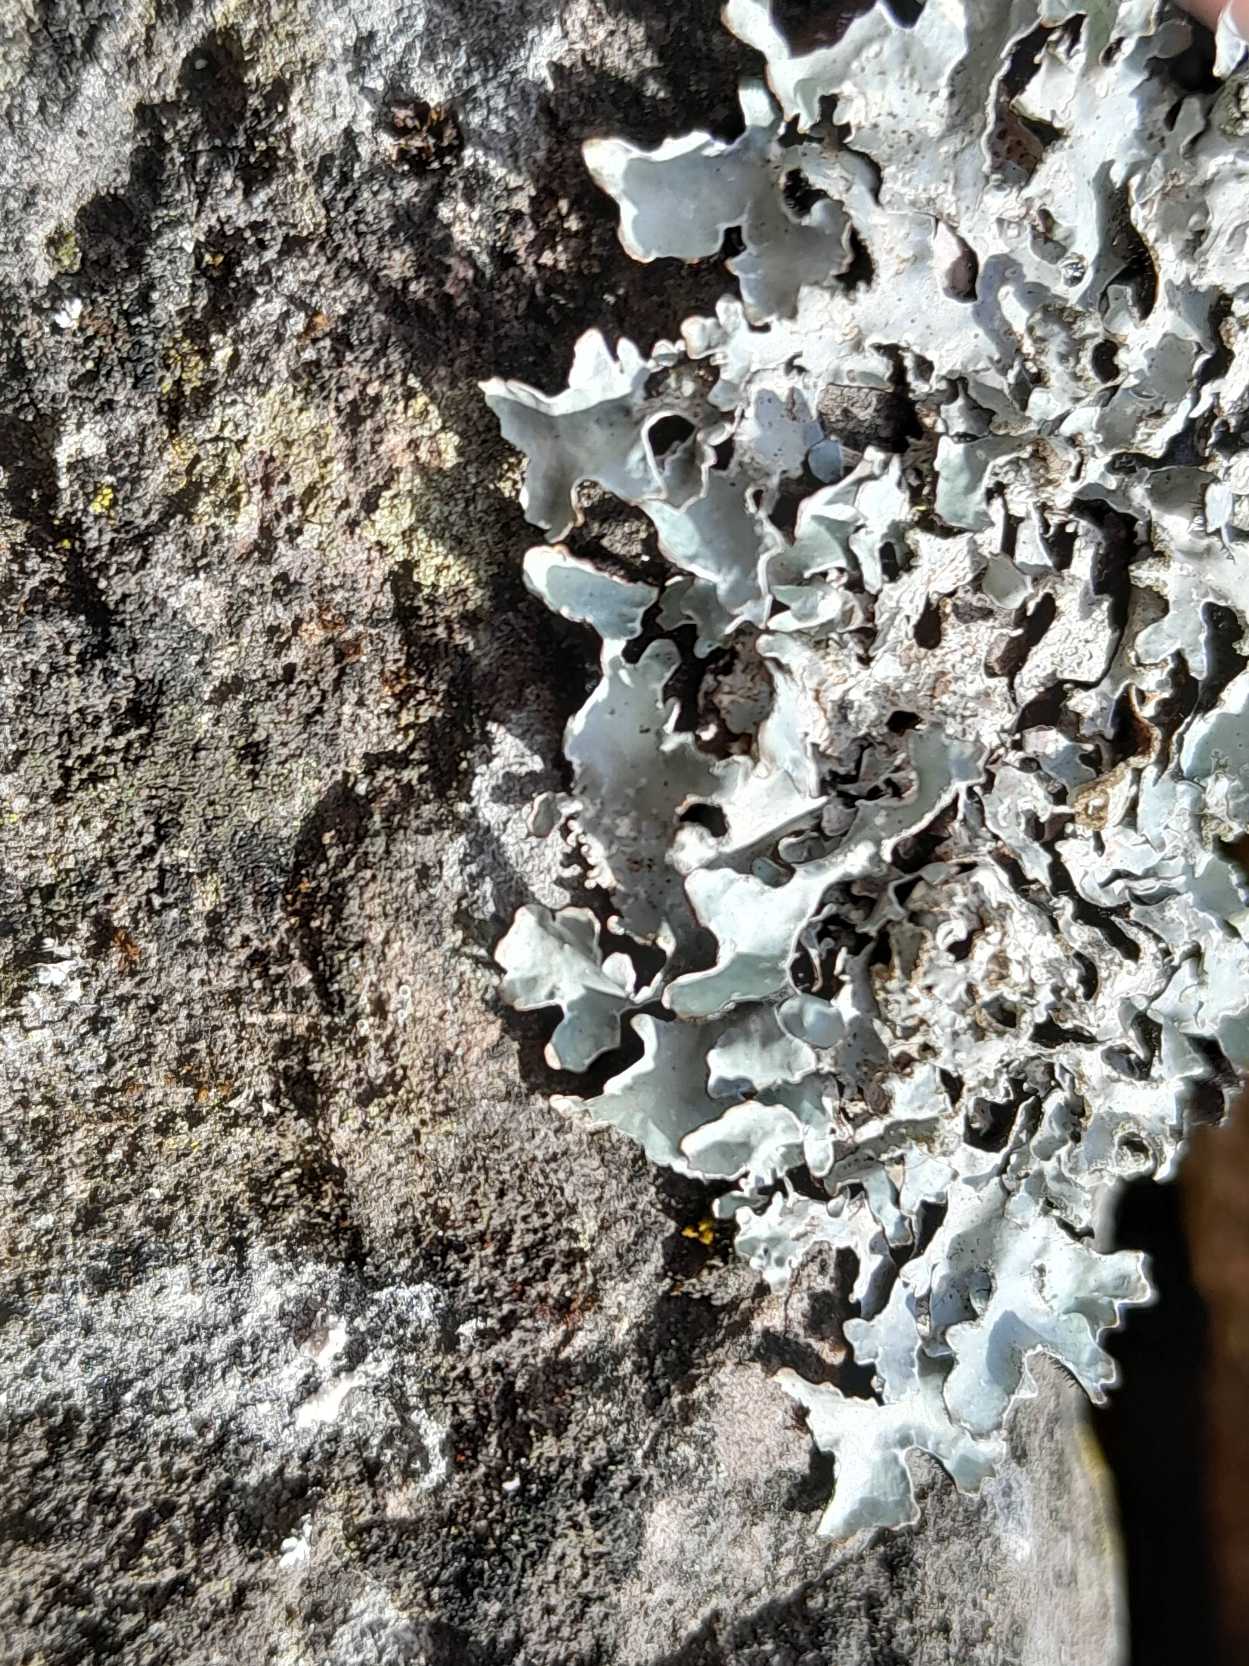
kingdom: Fungi
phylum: Ascomycota
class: Lecanoromycetes
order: Lecanorales
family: Parmeliaceae
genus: Parmelia
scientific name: Parmelia sulcata
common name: Rynket skållav
